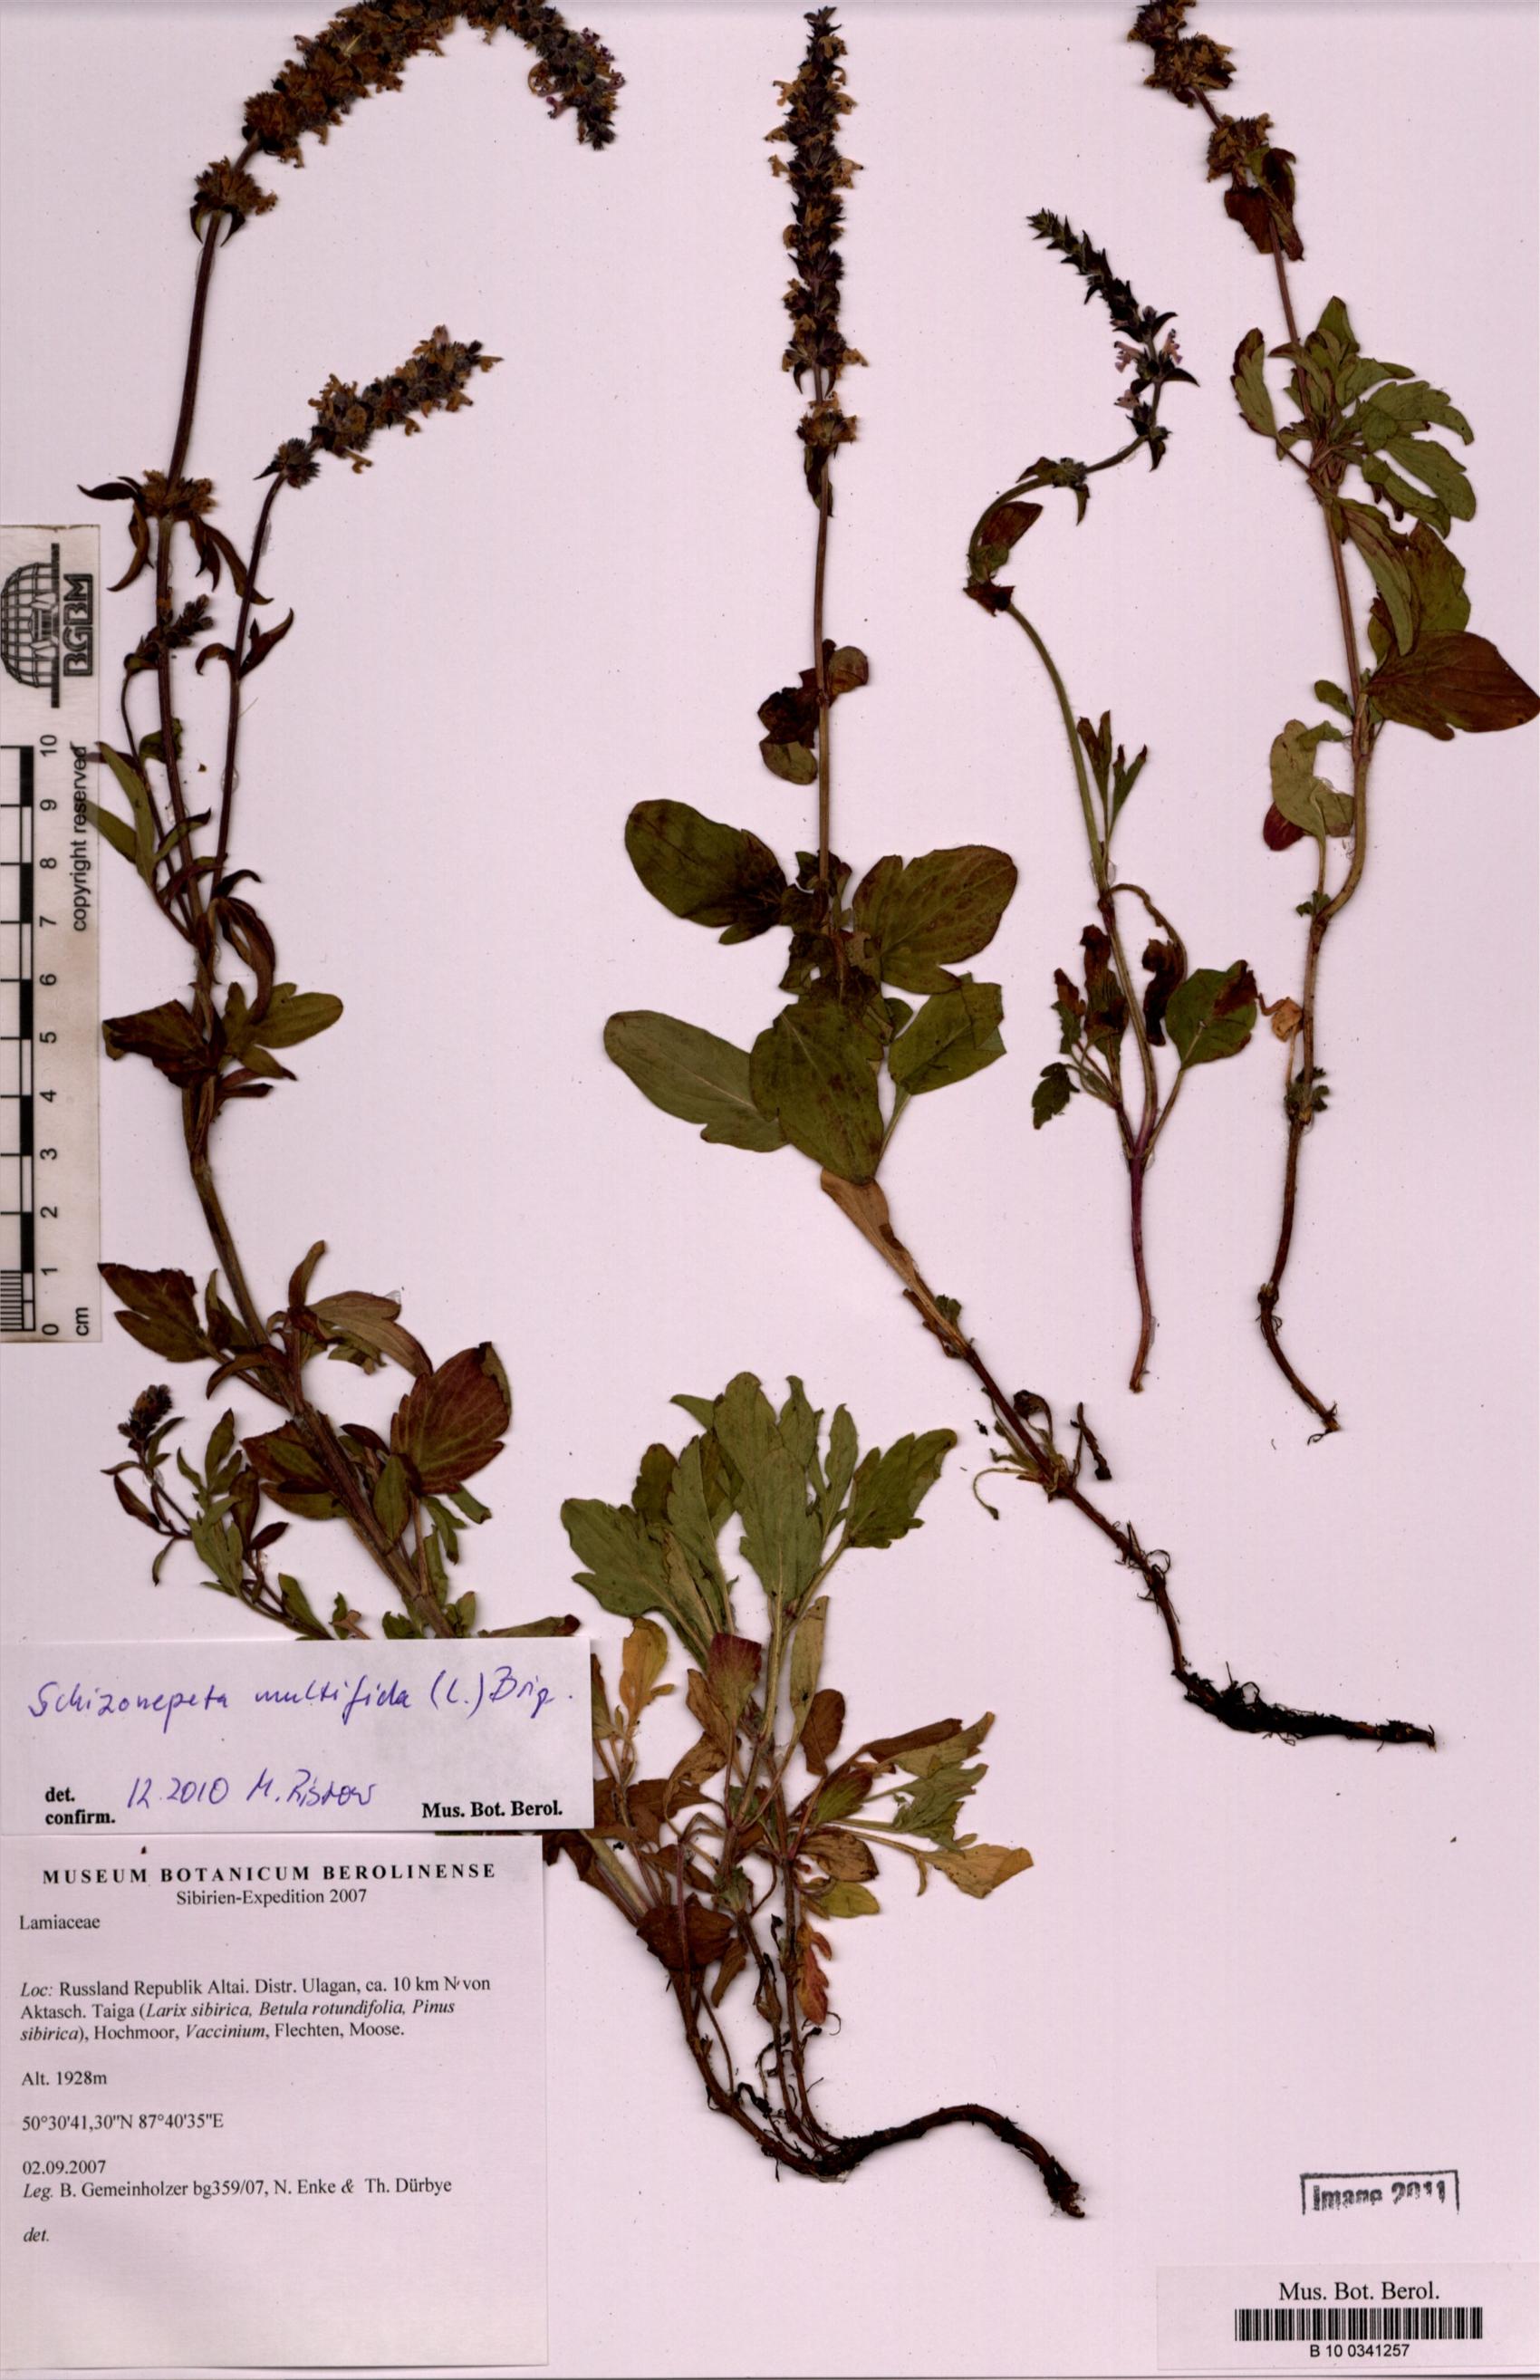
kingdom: Plantae
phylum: Tracheophyta
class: Magnoliopsida
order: Lamiales
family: Lamiaceae
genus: Nepeta
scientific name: Nepeta multifida
